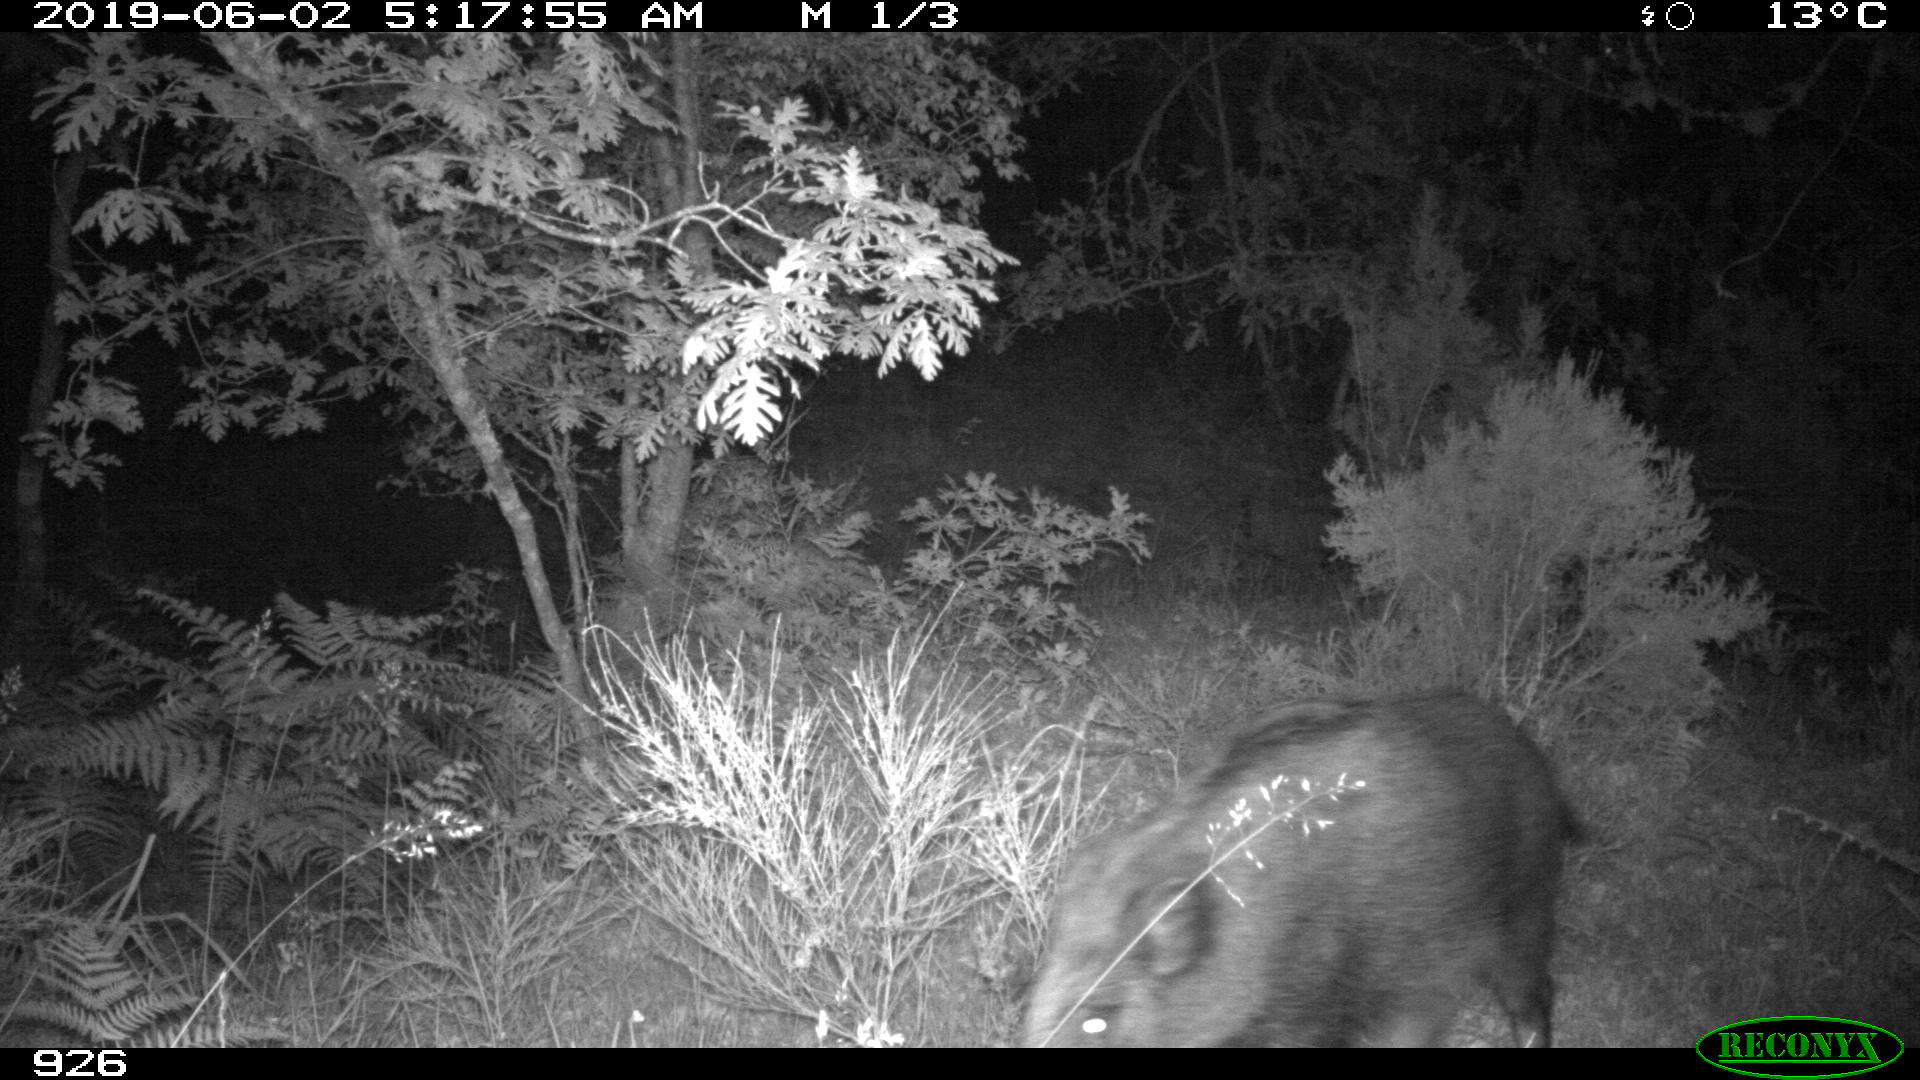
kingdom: Animalia
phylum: Chordata
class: Mammalia
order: Artiodactyla
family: Suidae
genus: Sus
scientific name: Sus scrofa
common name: Wild boar
